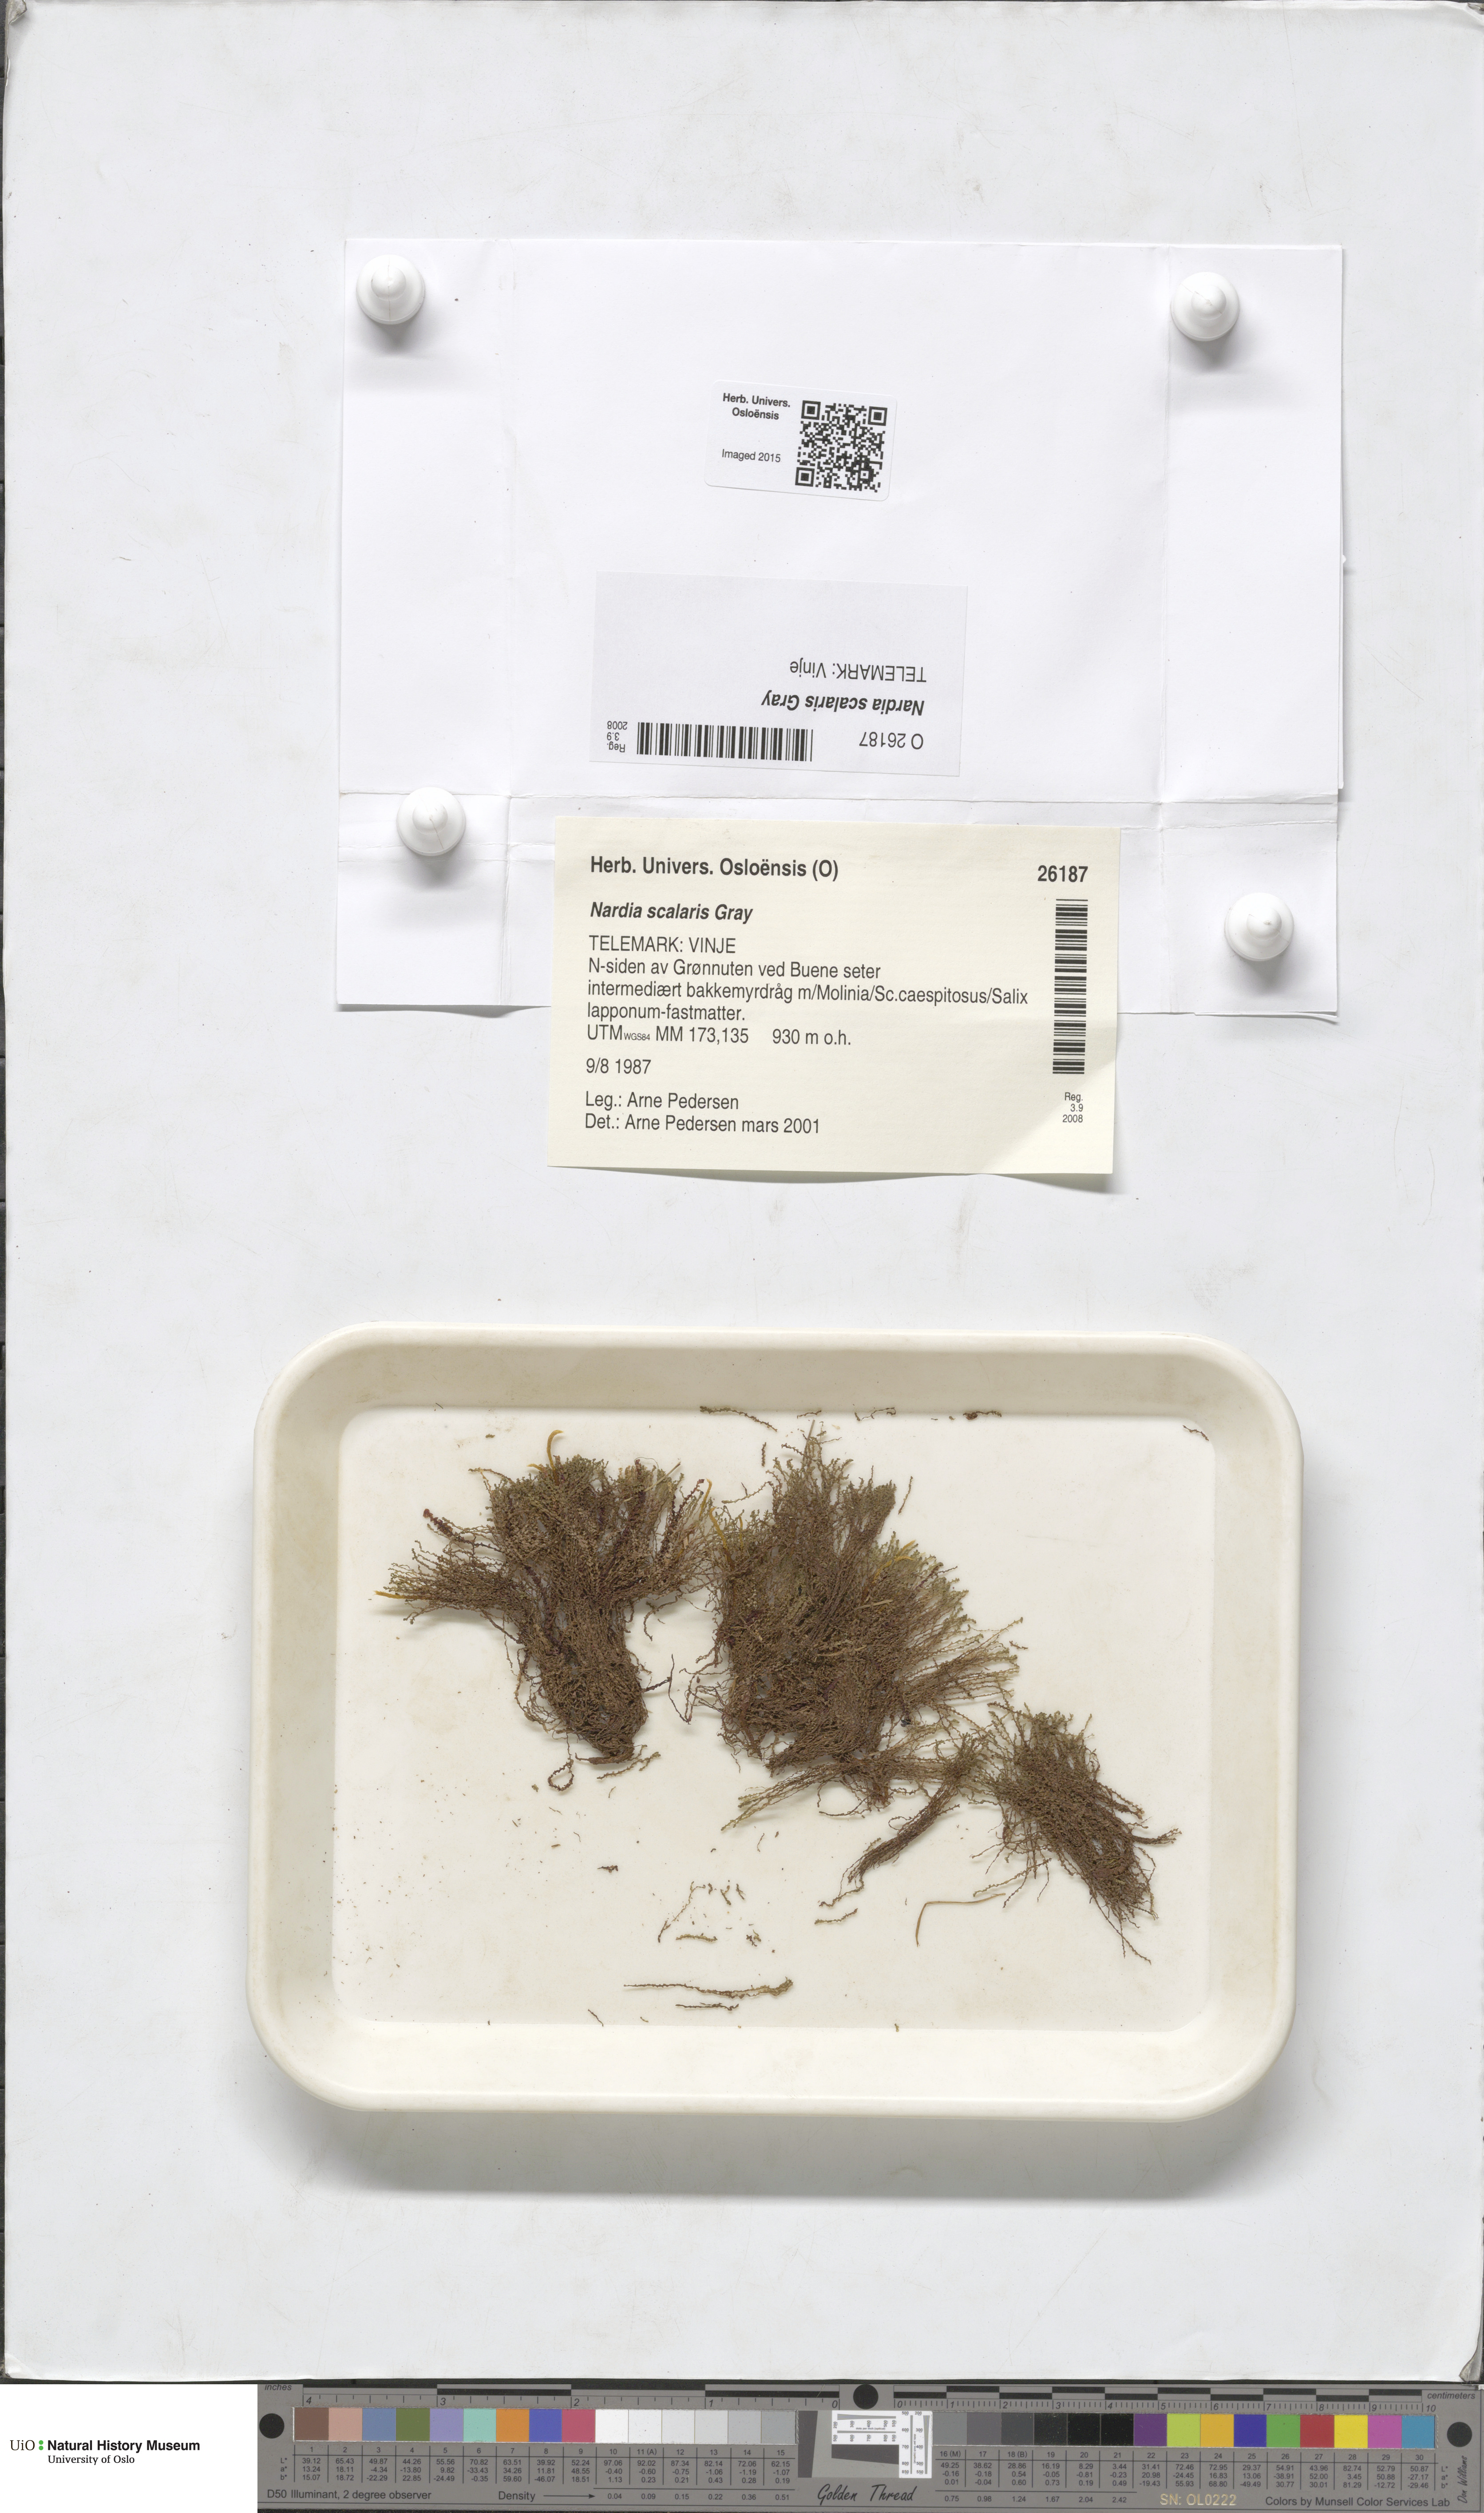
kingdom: Plantae
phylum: Marchantiophyta
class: Jungermanniopsida
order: Jungermanniales
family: Gymnomitriaceae
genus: Nardia
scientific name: Nardia scalaris
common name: Ladder flapwort
